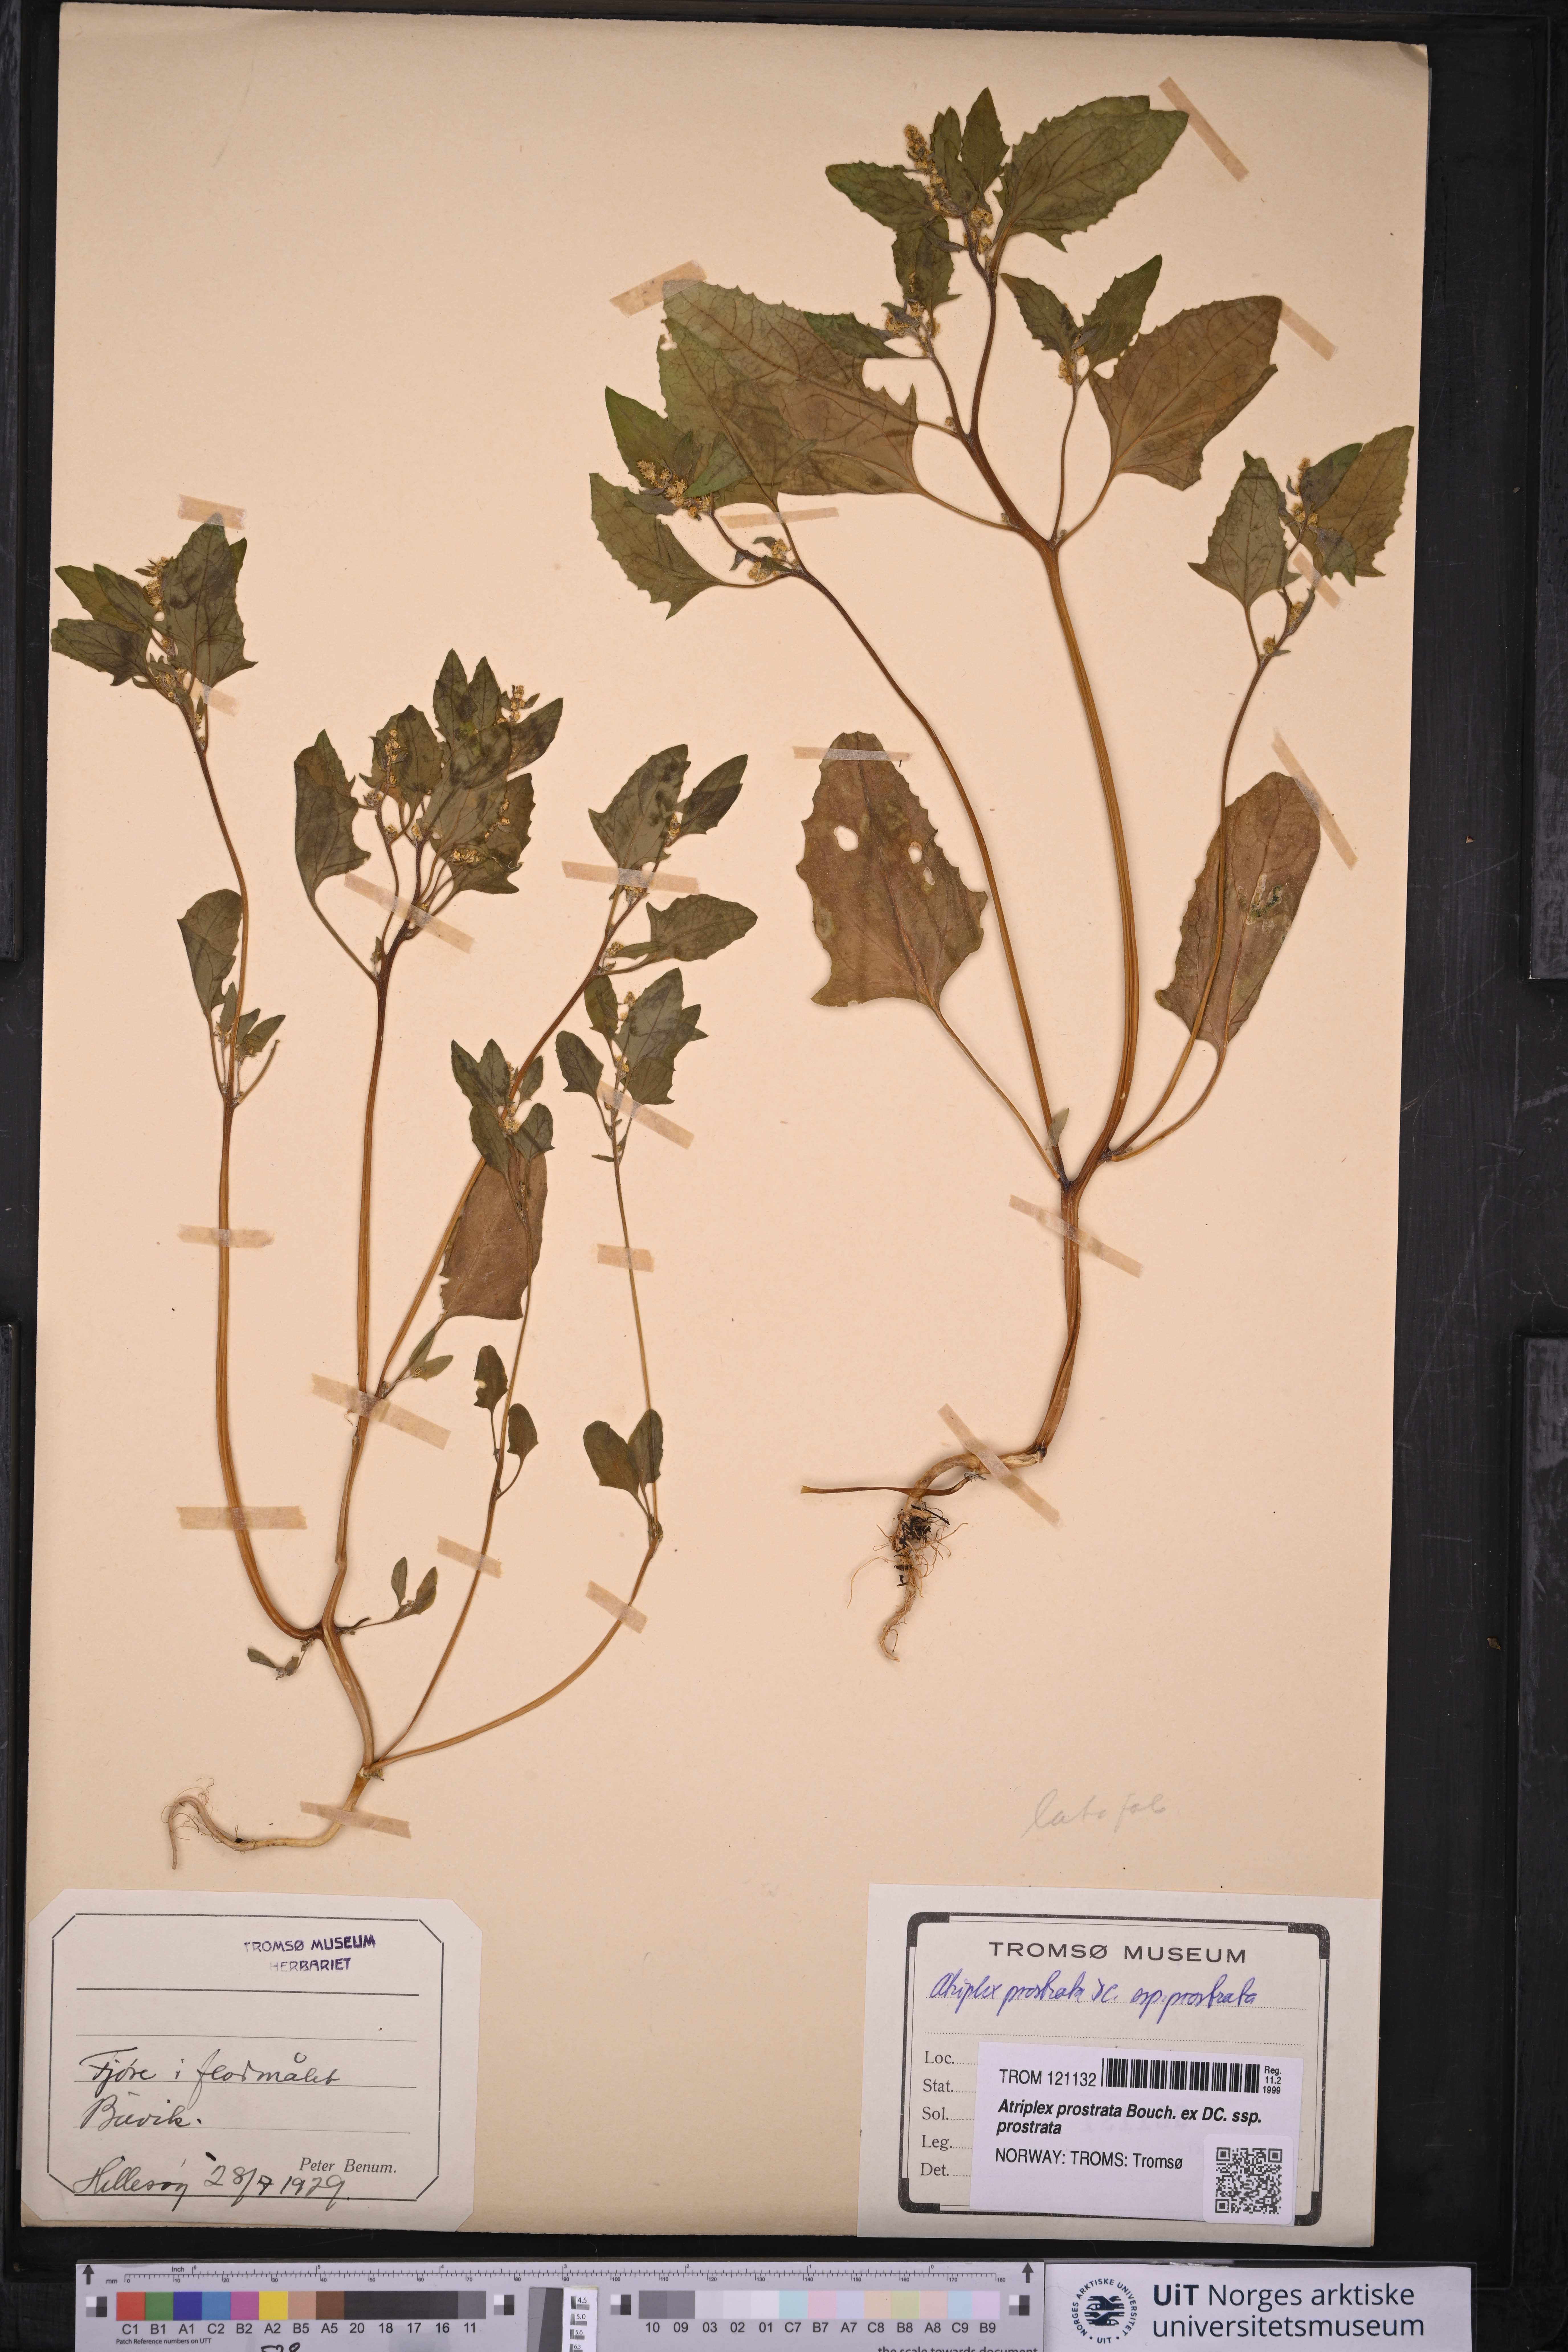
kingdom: Plantae
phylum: Tracheophyta
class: Magnoliopsida
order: Caryophyllales
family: Amaranthaceae
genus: Atriplex
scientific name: Atriplex prostrata
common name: Spear-leaved orache
